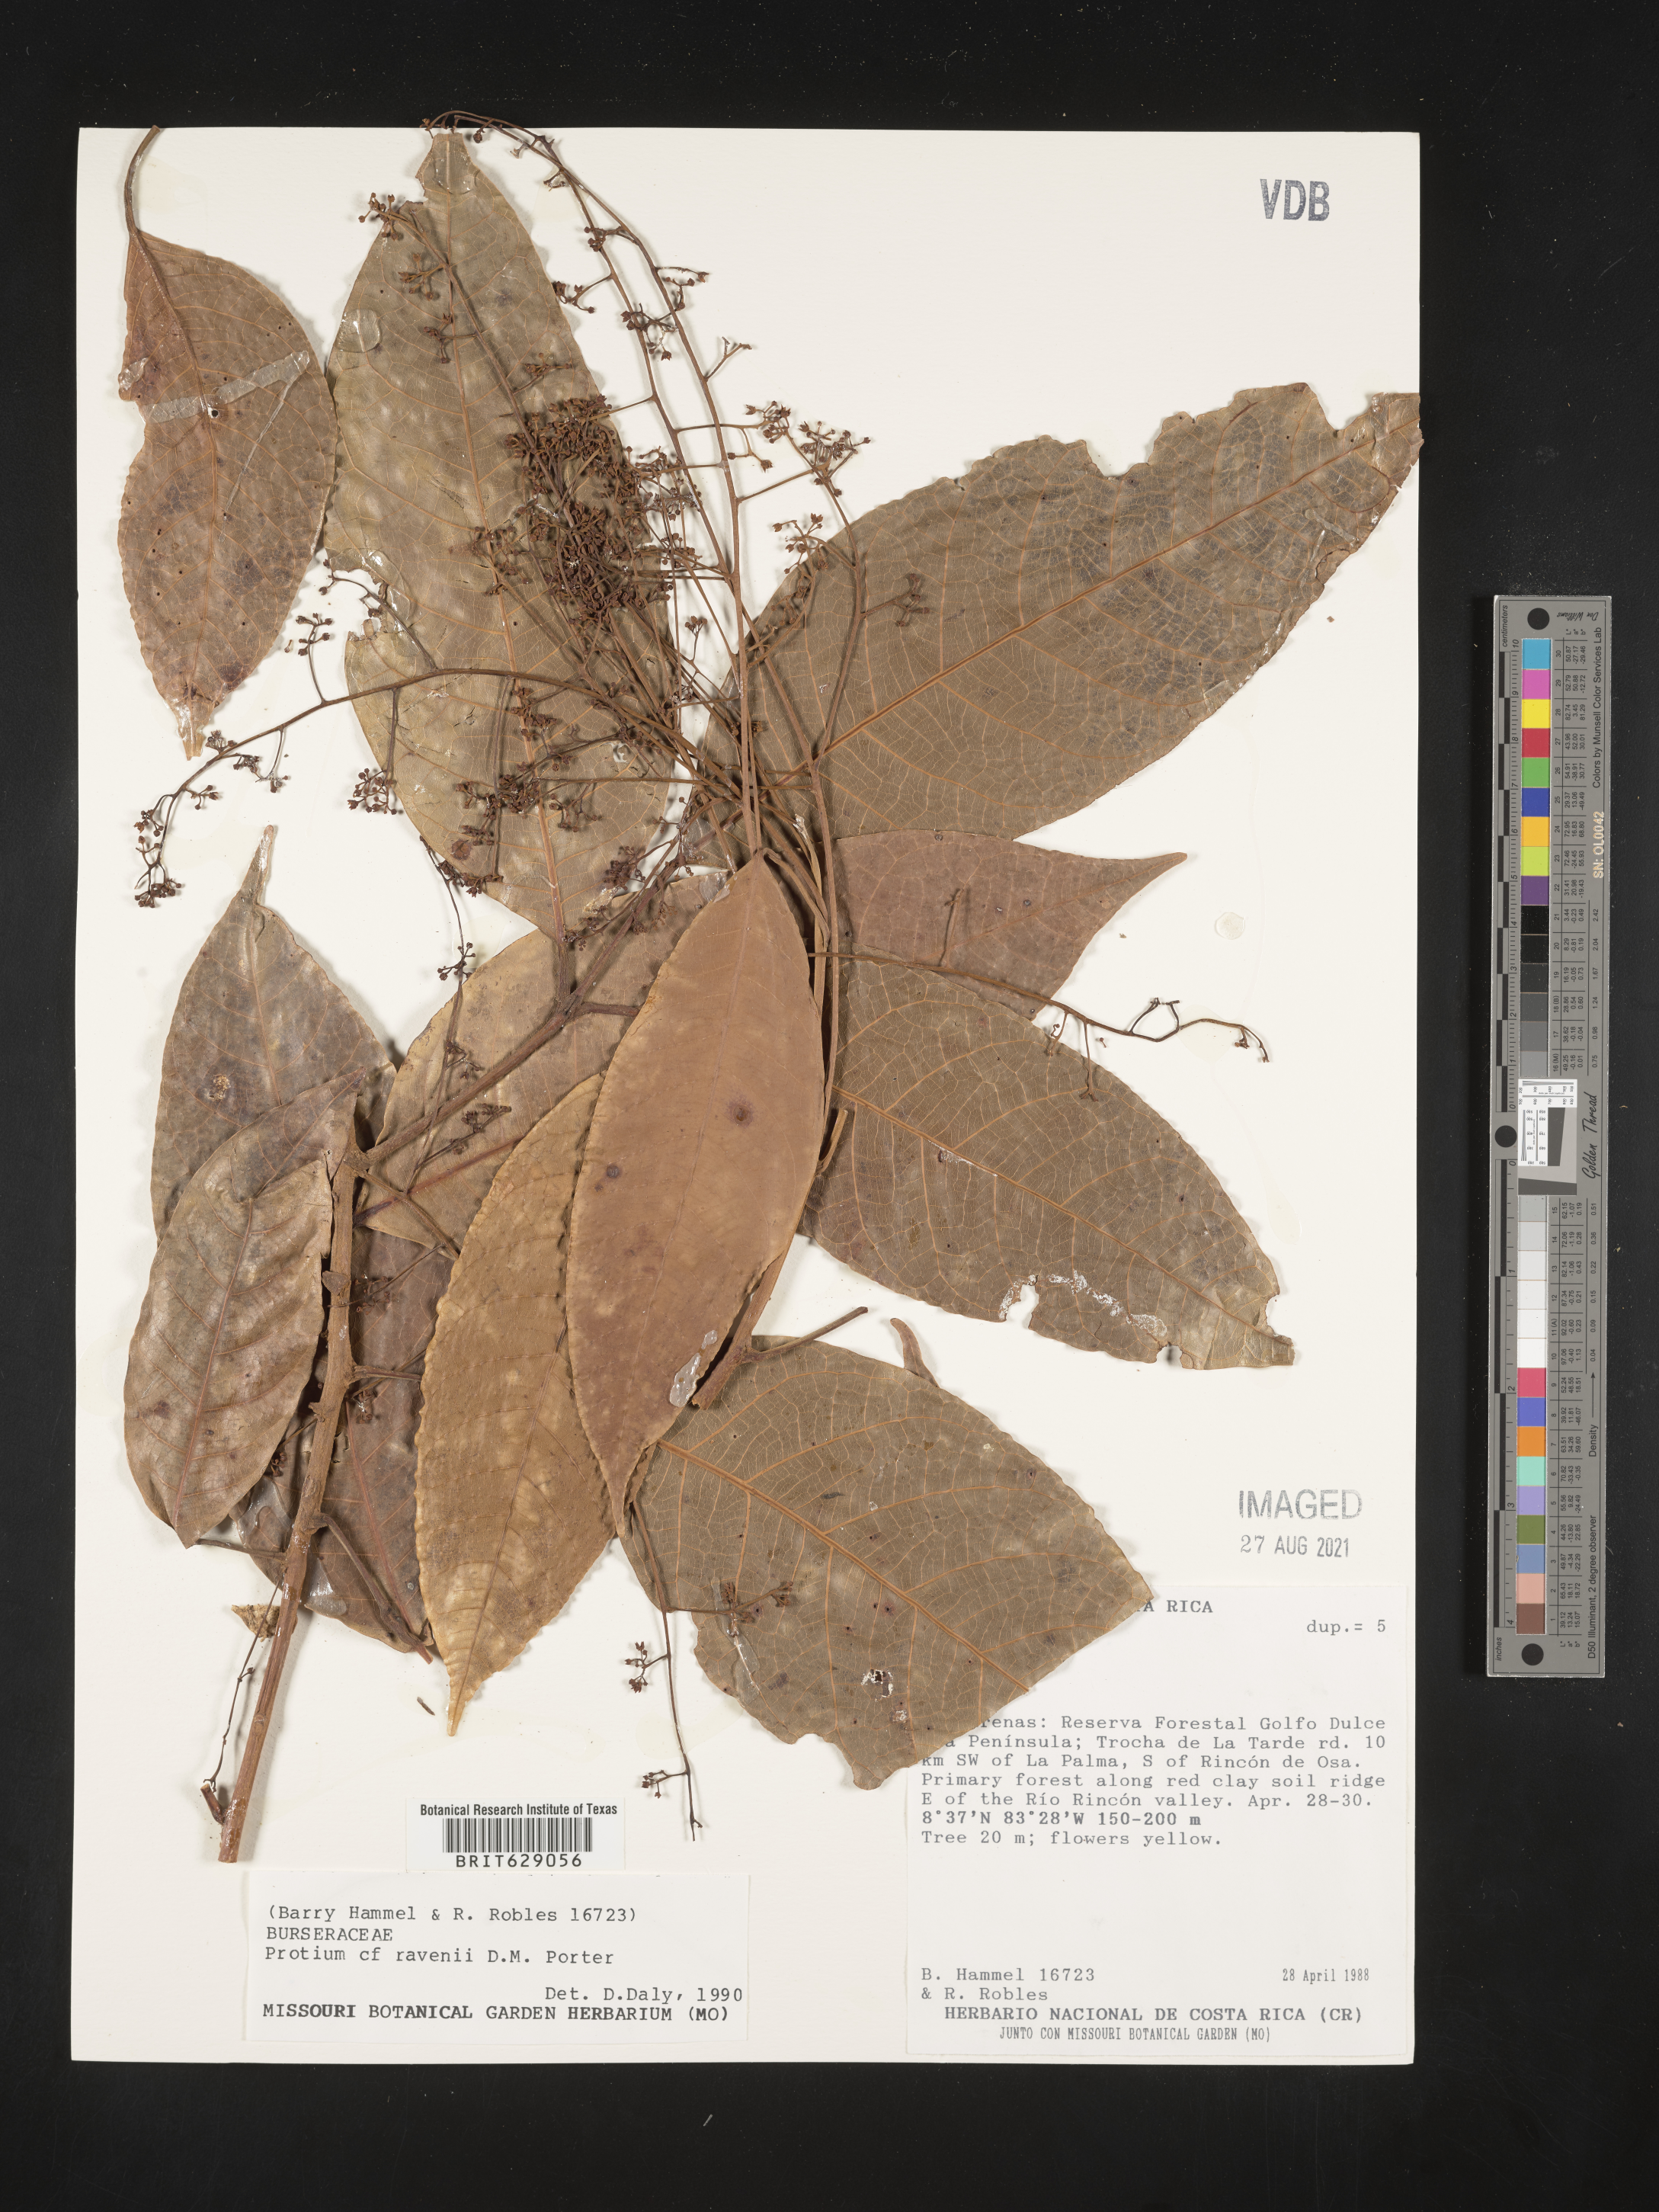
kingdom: Plantae
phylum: Tracheophyta
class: Magnoliopsida
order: Sapindales
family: Burseraceae
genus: Protium
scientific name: Protium ravenii
